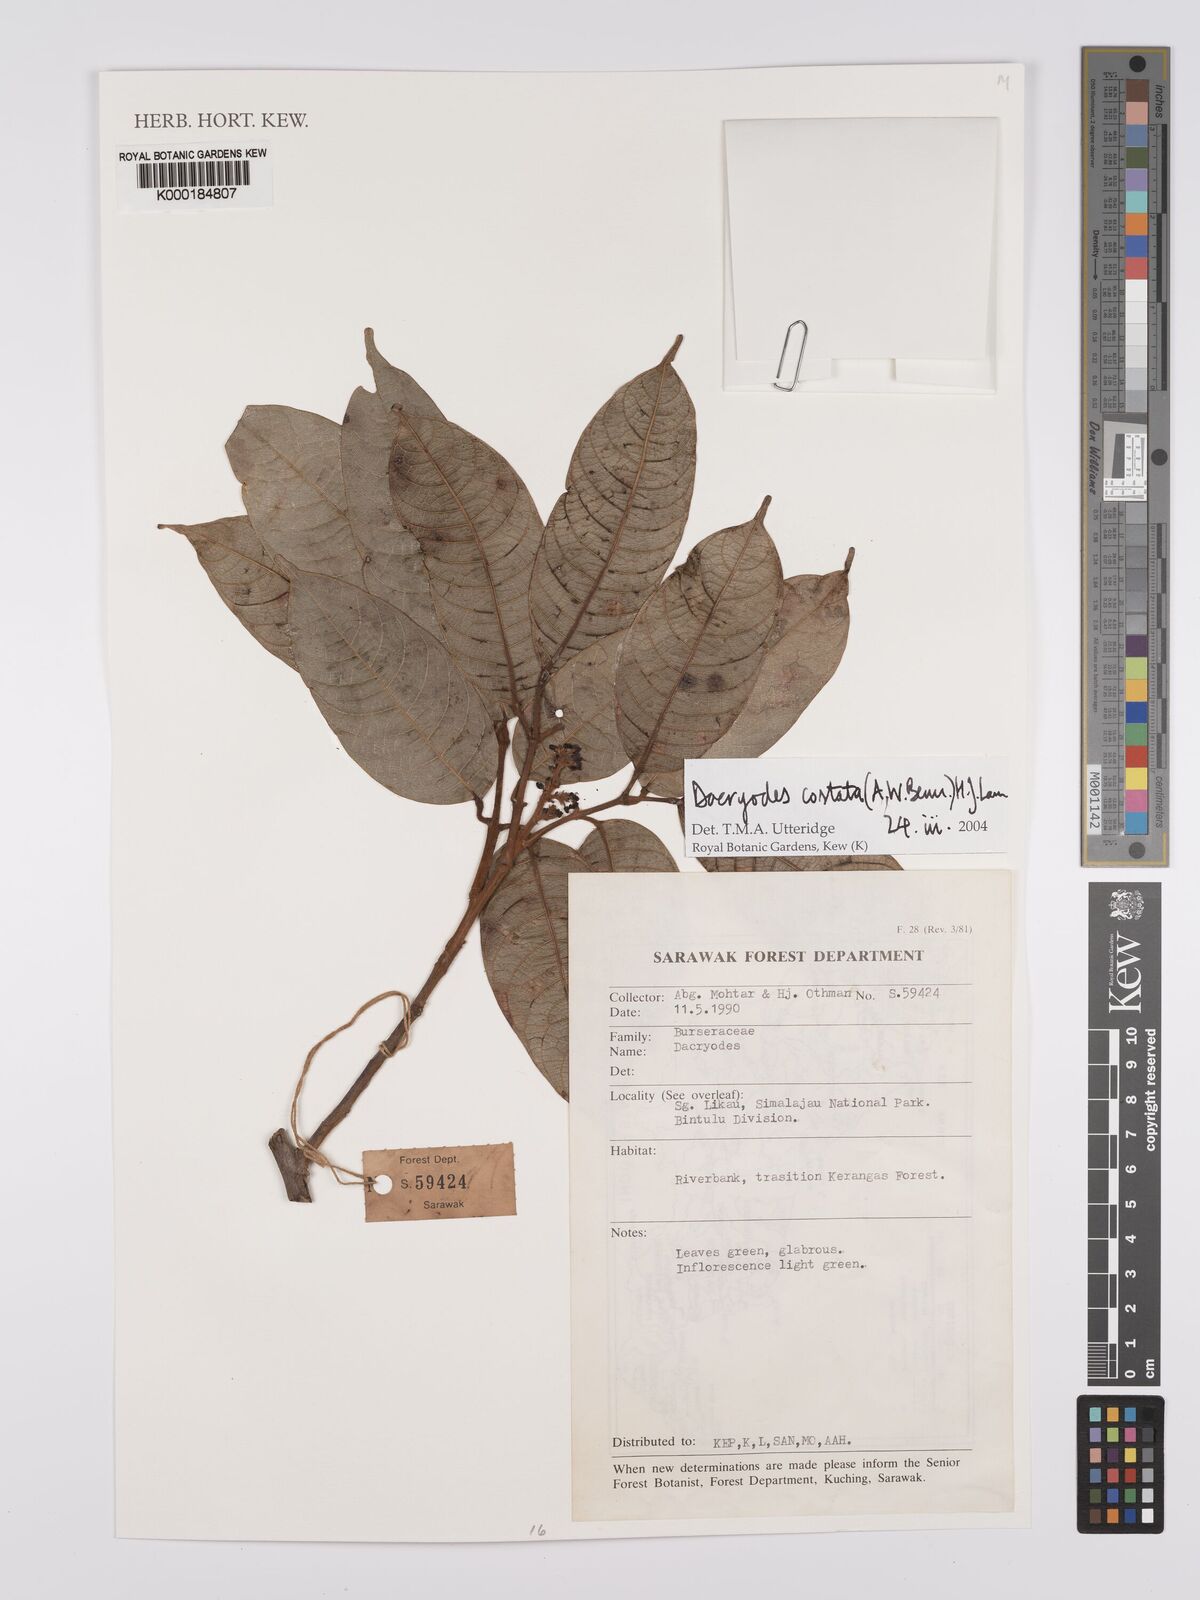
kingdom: Plantae
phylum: Tracheophyta
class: Magnoliopsida
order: Sapindales
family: Burseraceae
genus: Dacryodes
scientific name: Dacryodes costata
